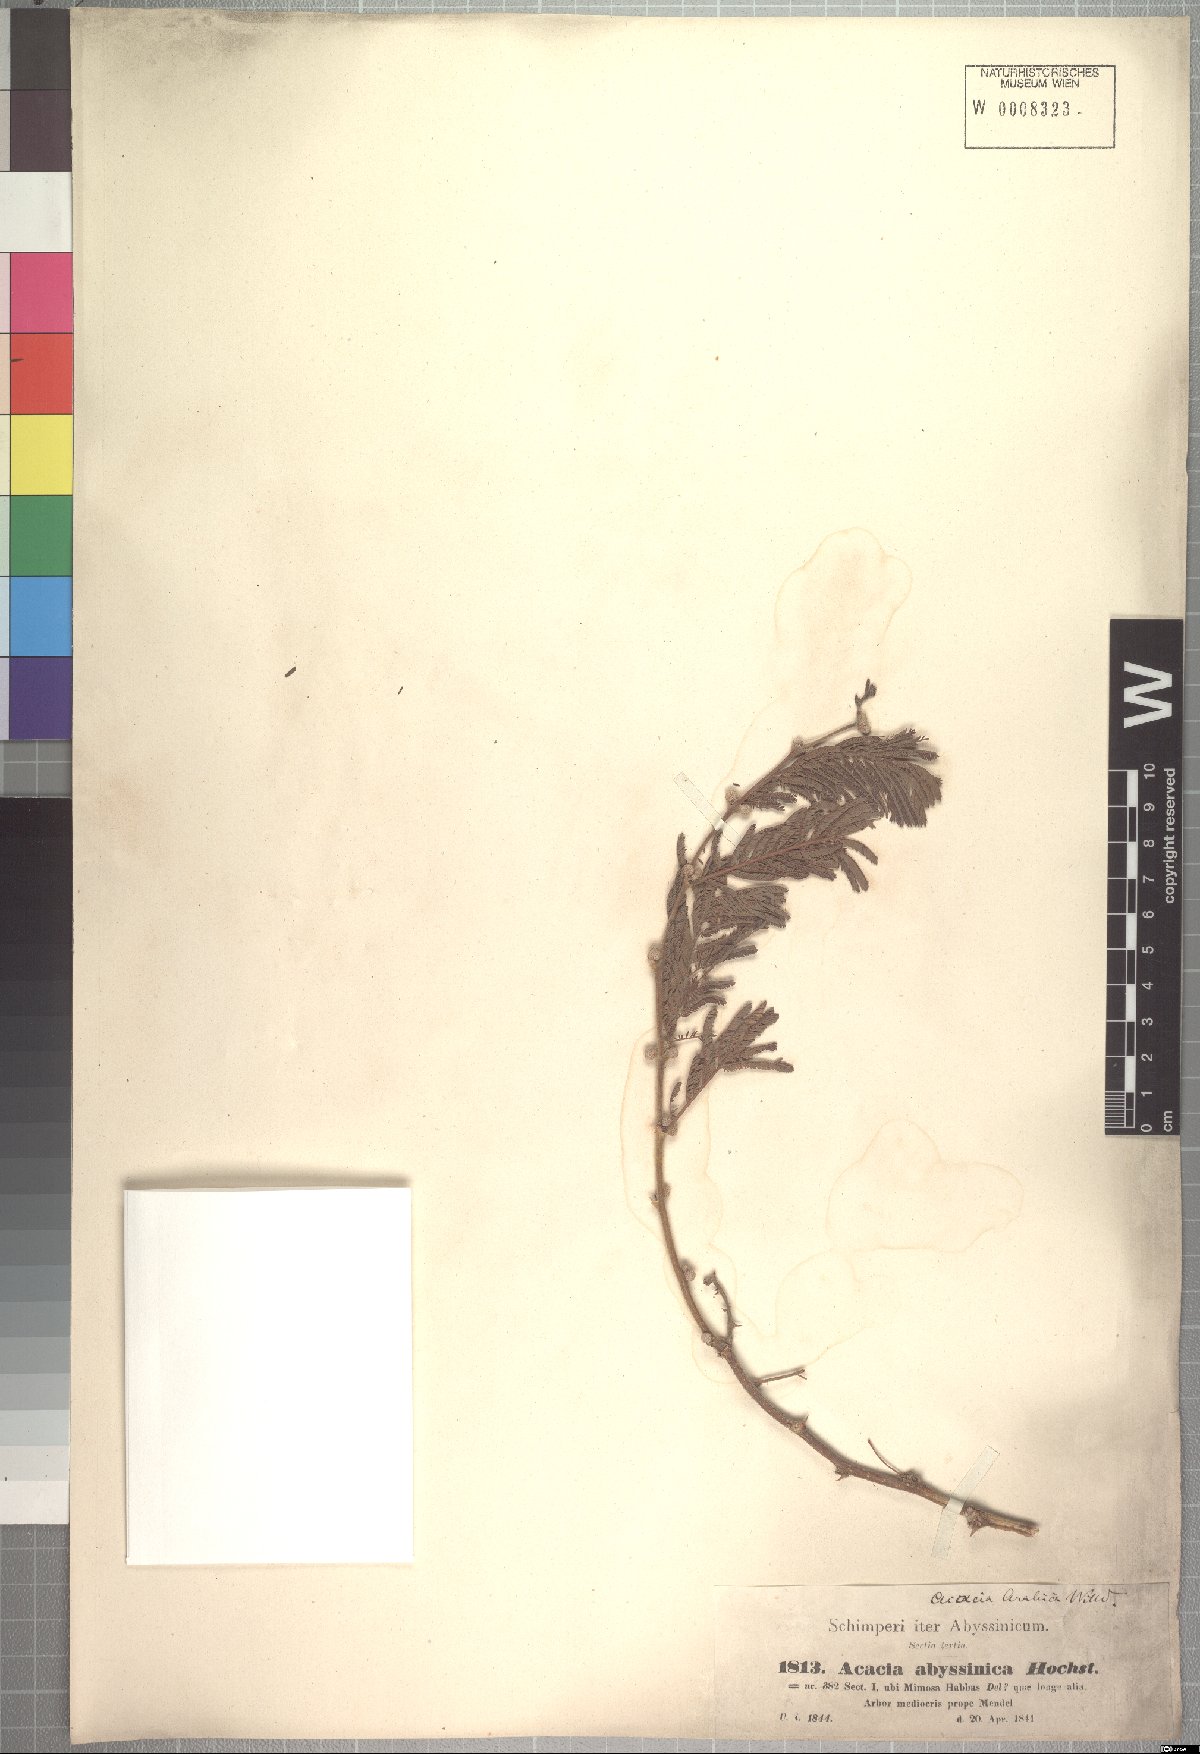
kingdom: Plantae
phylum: Tracheophyta
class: Magnoliopsida
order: Fabales
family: Fabaceae
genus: Vachellia
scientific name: Vachellia abyssinica
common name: Nyanga flat-top
